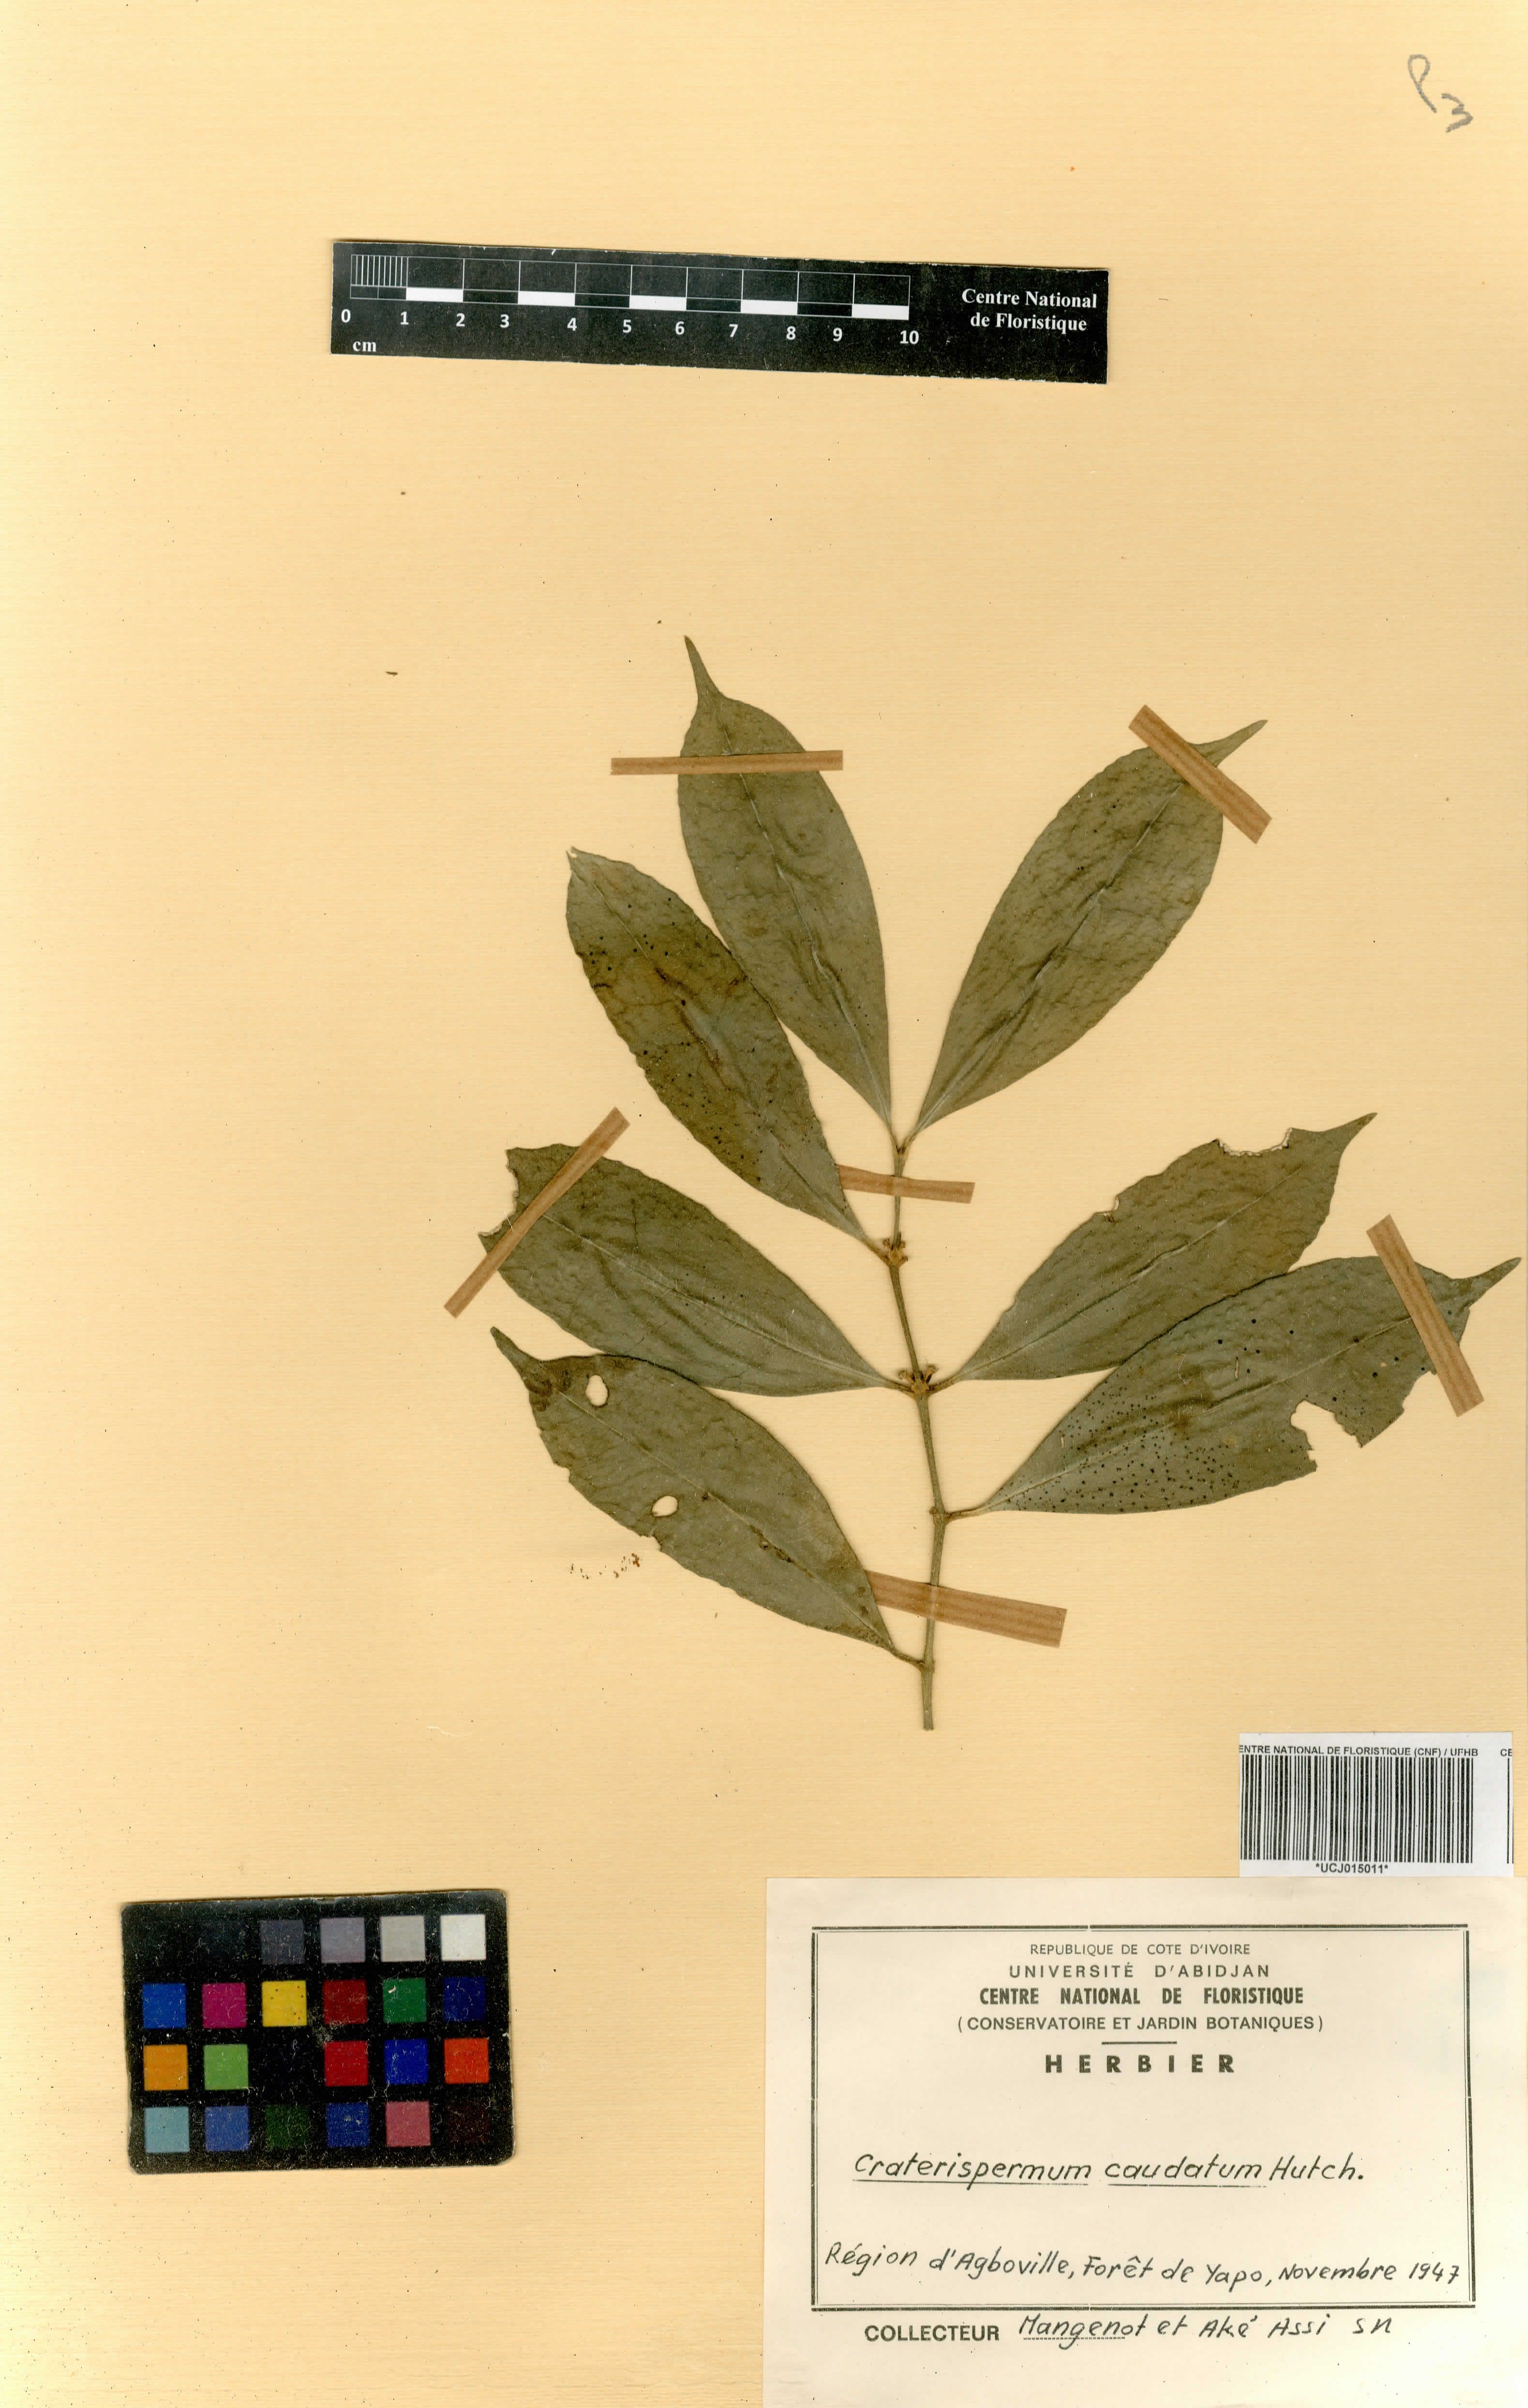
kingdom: Plantae
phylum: Tracheophyta
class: Magnoliopsida
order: Gentianales
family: Rubiaceae
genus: Craterispermum
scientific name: Craterispermum caudatum
